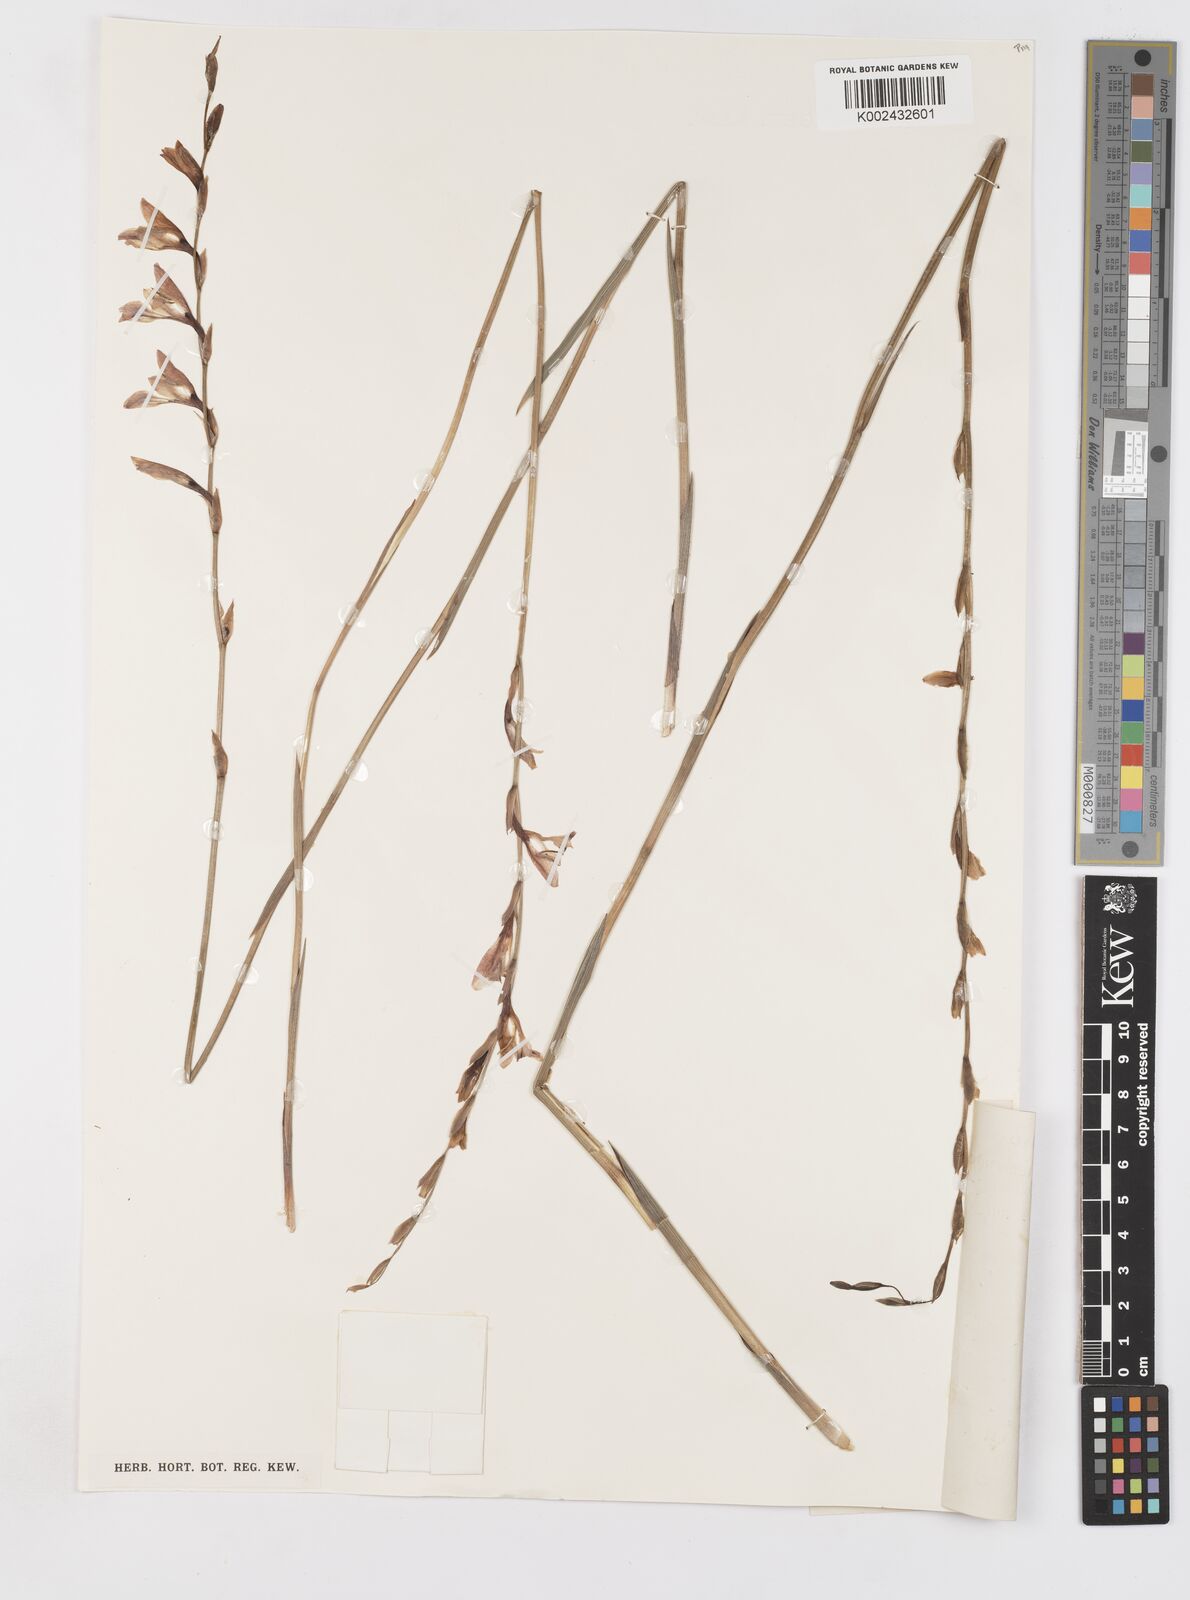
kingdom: Plantae
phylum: Tracheophyta
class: Liliopsida
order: Asparagales
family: Iridaceae
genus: Gladiolus
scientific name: Gladiolus unguiculatus
